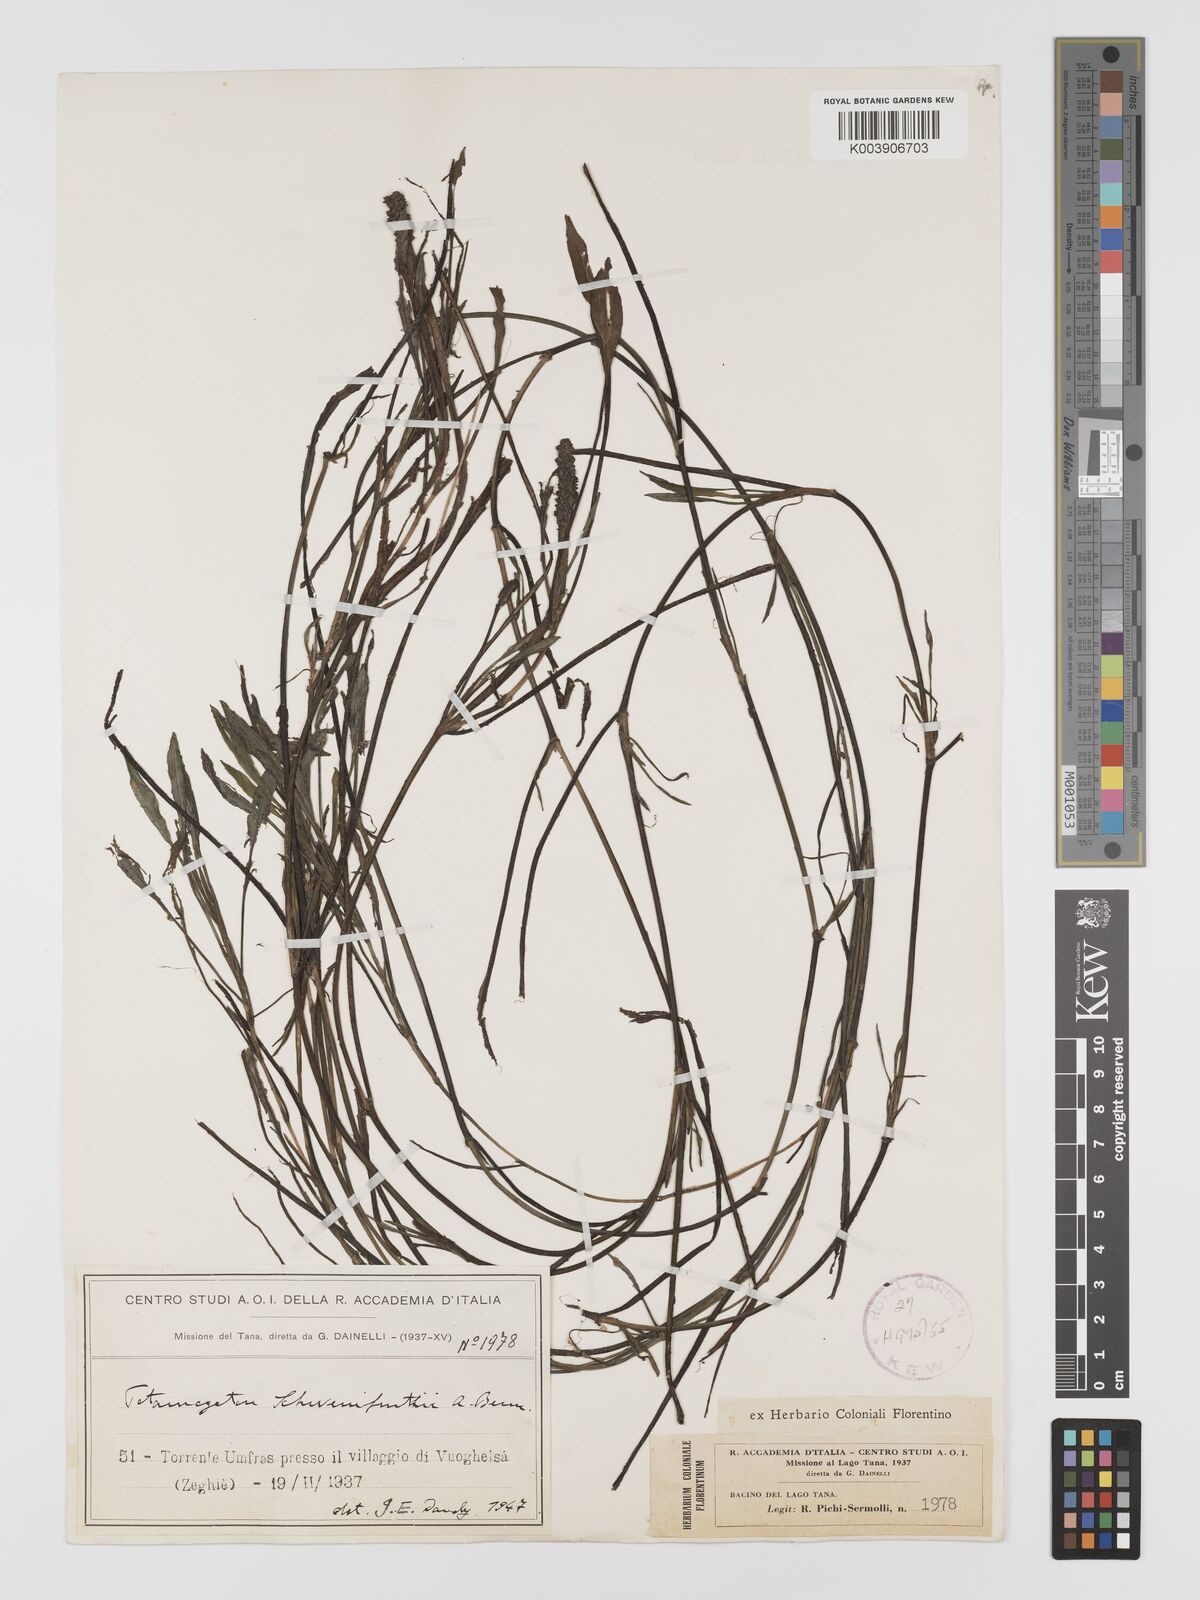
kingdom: Plantae
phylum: Tracheophyta
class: Liliopsida
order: Alismatales
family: Potamogetonaceae
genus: Potamogeton
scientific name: Potamogeton schweinfurthii
